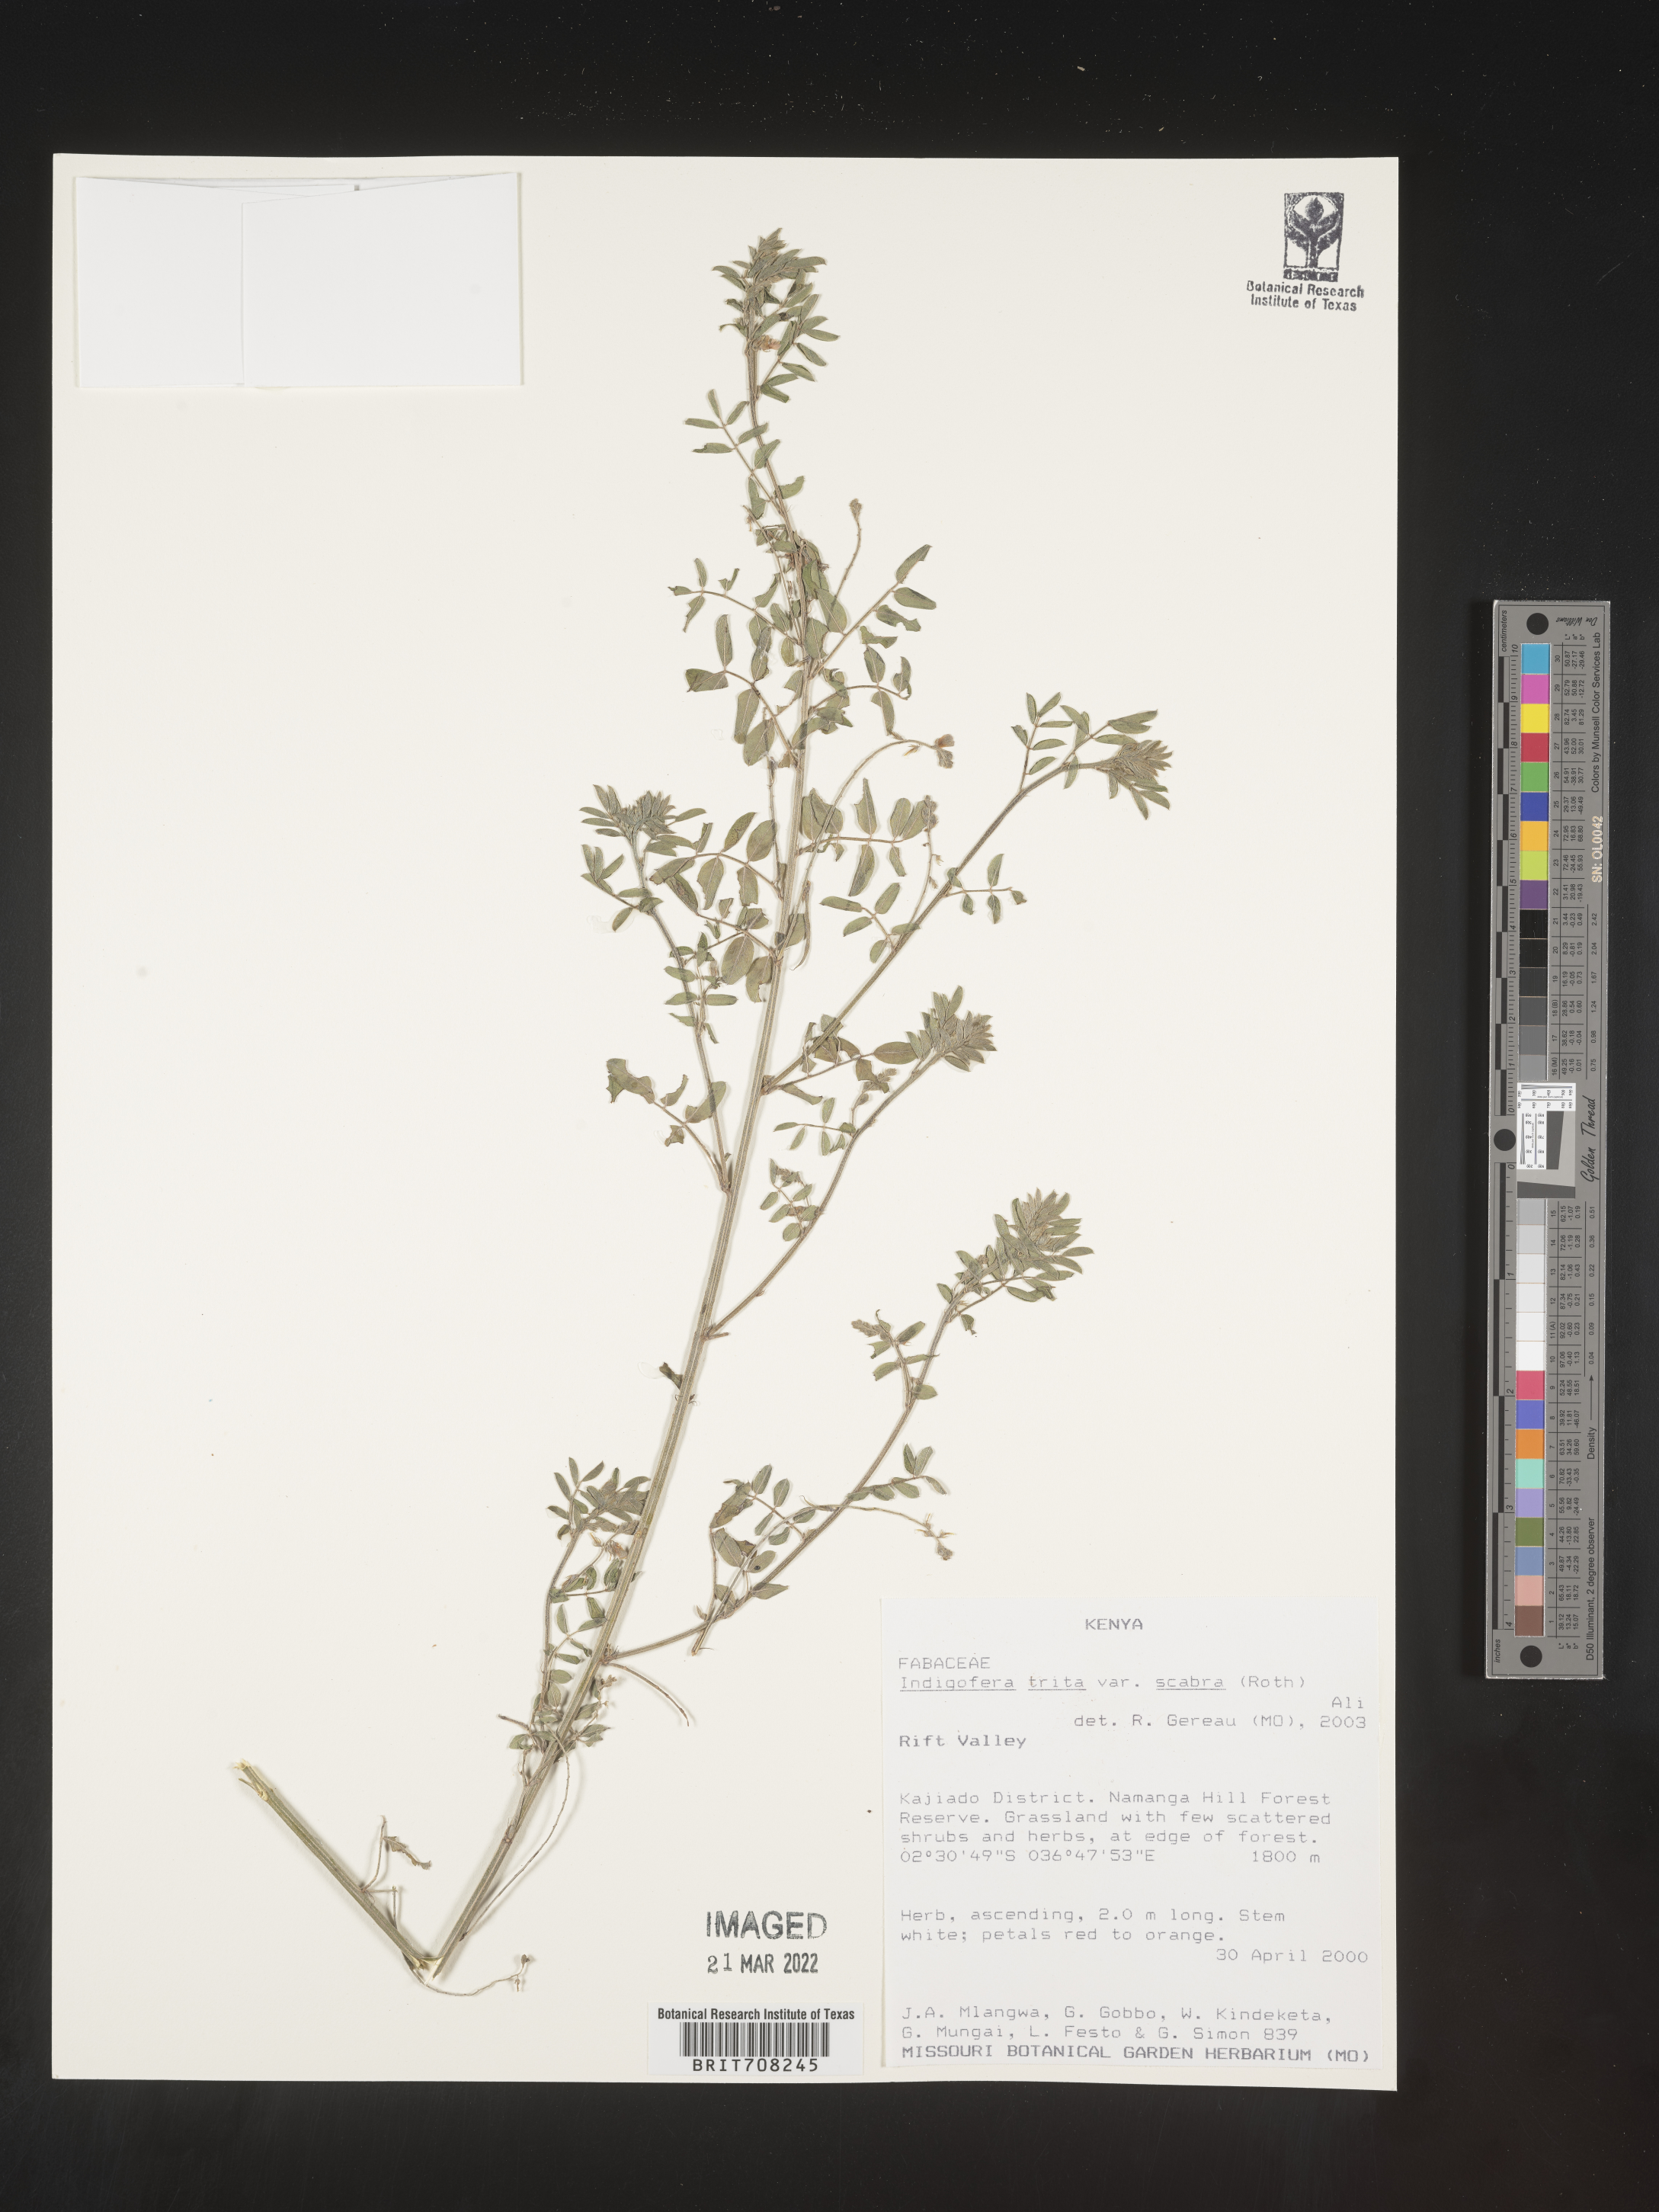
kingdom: Plantae
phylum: Tracheophyta
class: Magnoliopsida
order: Fabales
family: Fabaceae
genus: Indigofera
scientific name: Indigofera
